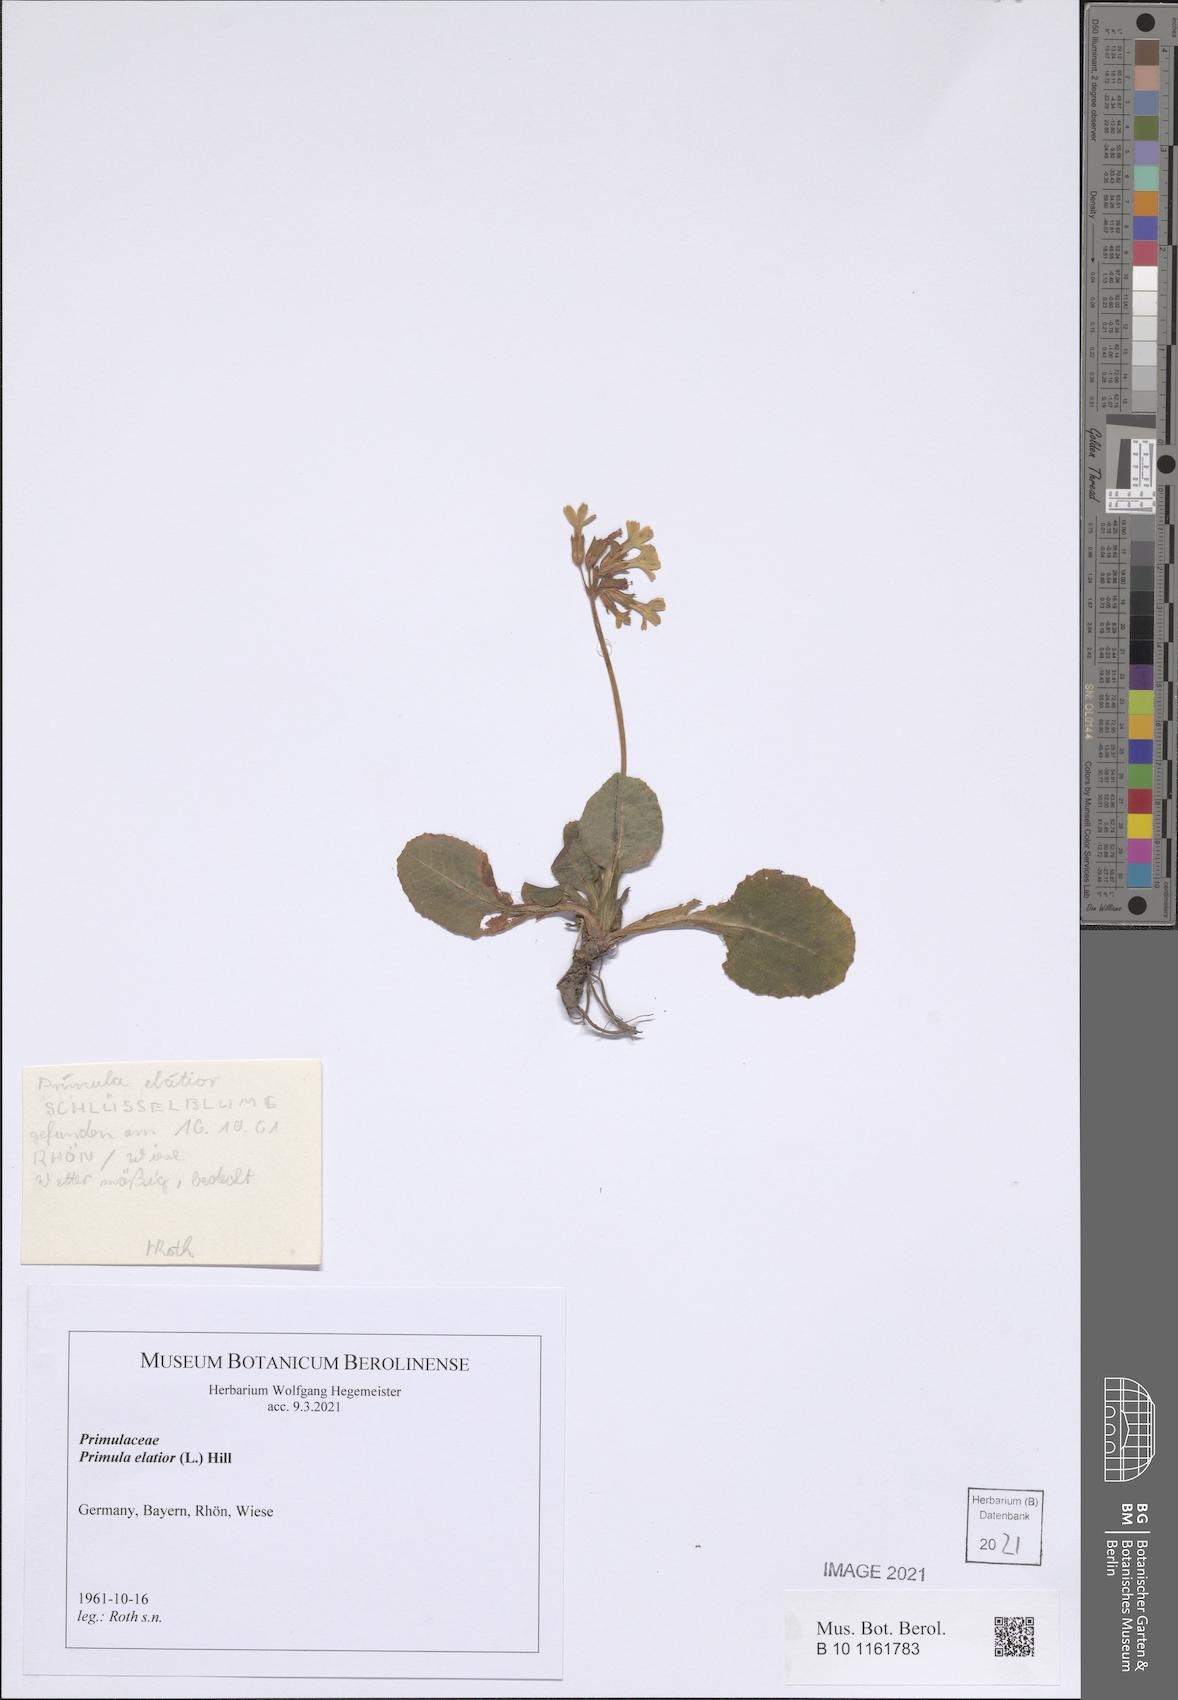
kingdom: Plantae
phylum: Tracheophyta
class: Magnoliopsida
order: Ericales
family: Primulaceae
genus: Primula
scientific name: Primula elatior
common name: Oxlip
